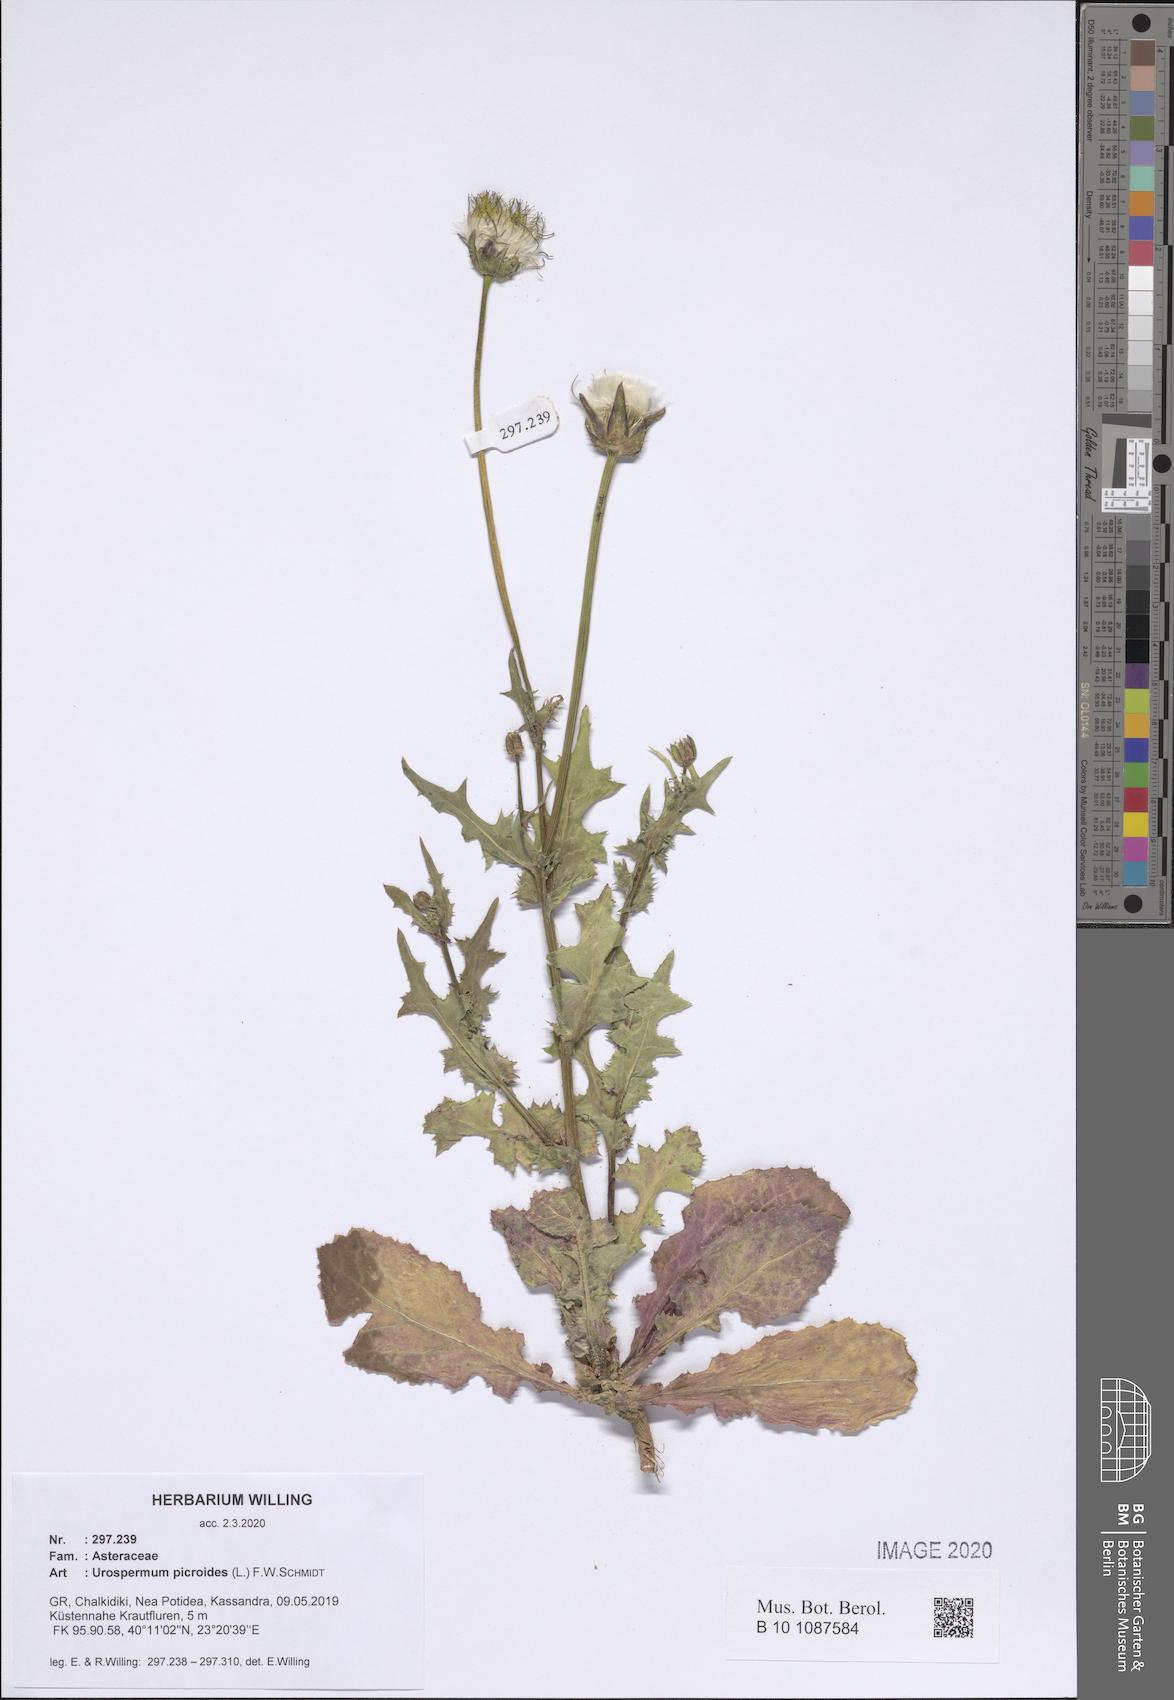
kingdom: Plantae
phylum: Tracheophyta
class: Magnoliopsida
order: Asterales
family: Asteraceae
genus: Urospermum
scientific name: Urospermum picroides
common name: False hawkbit
